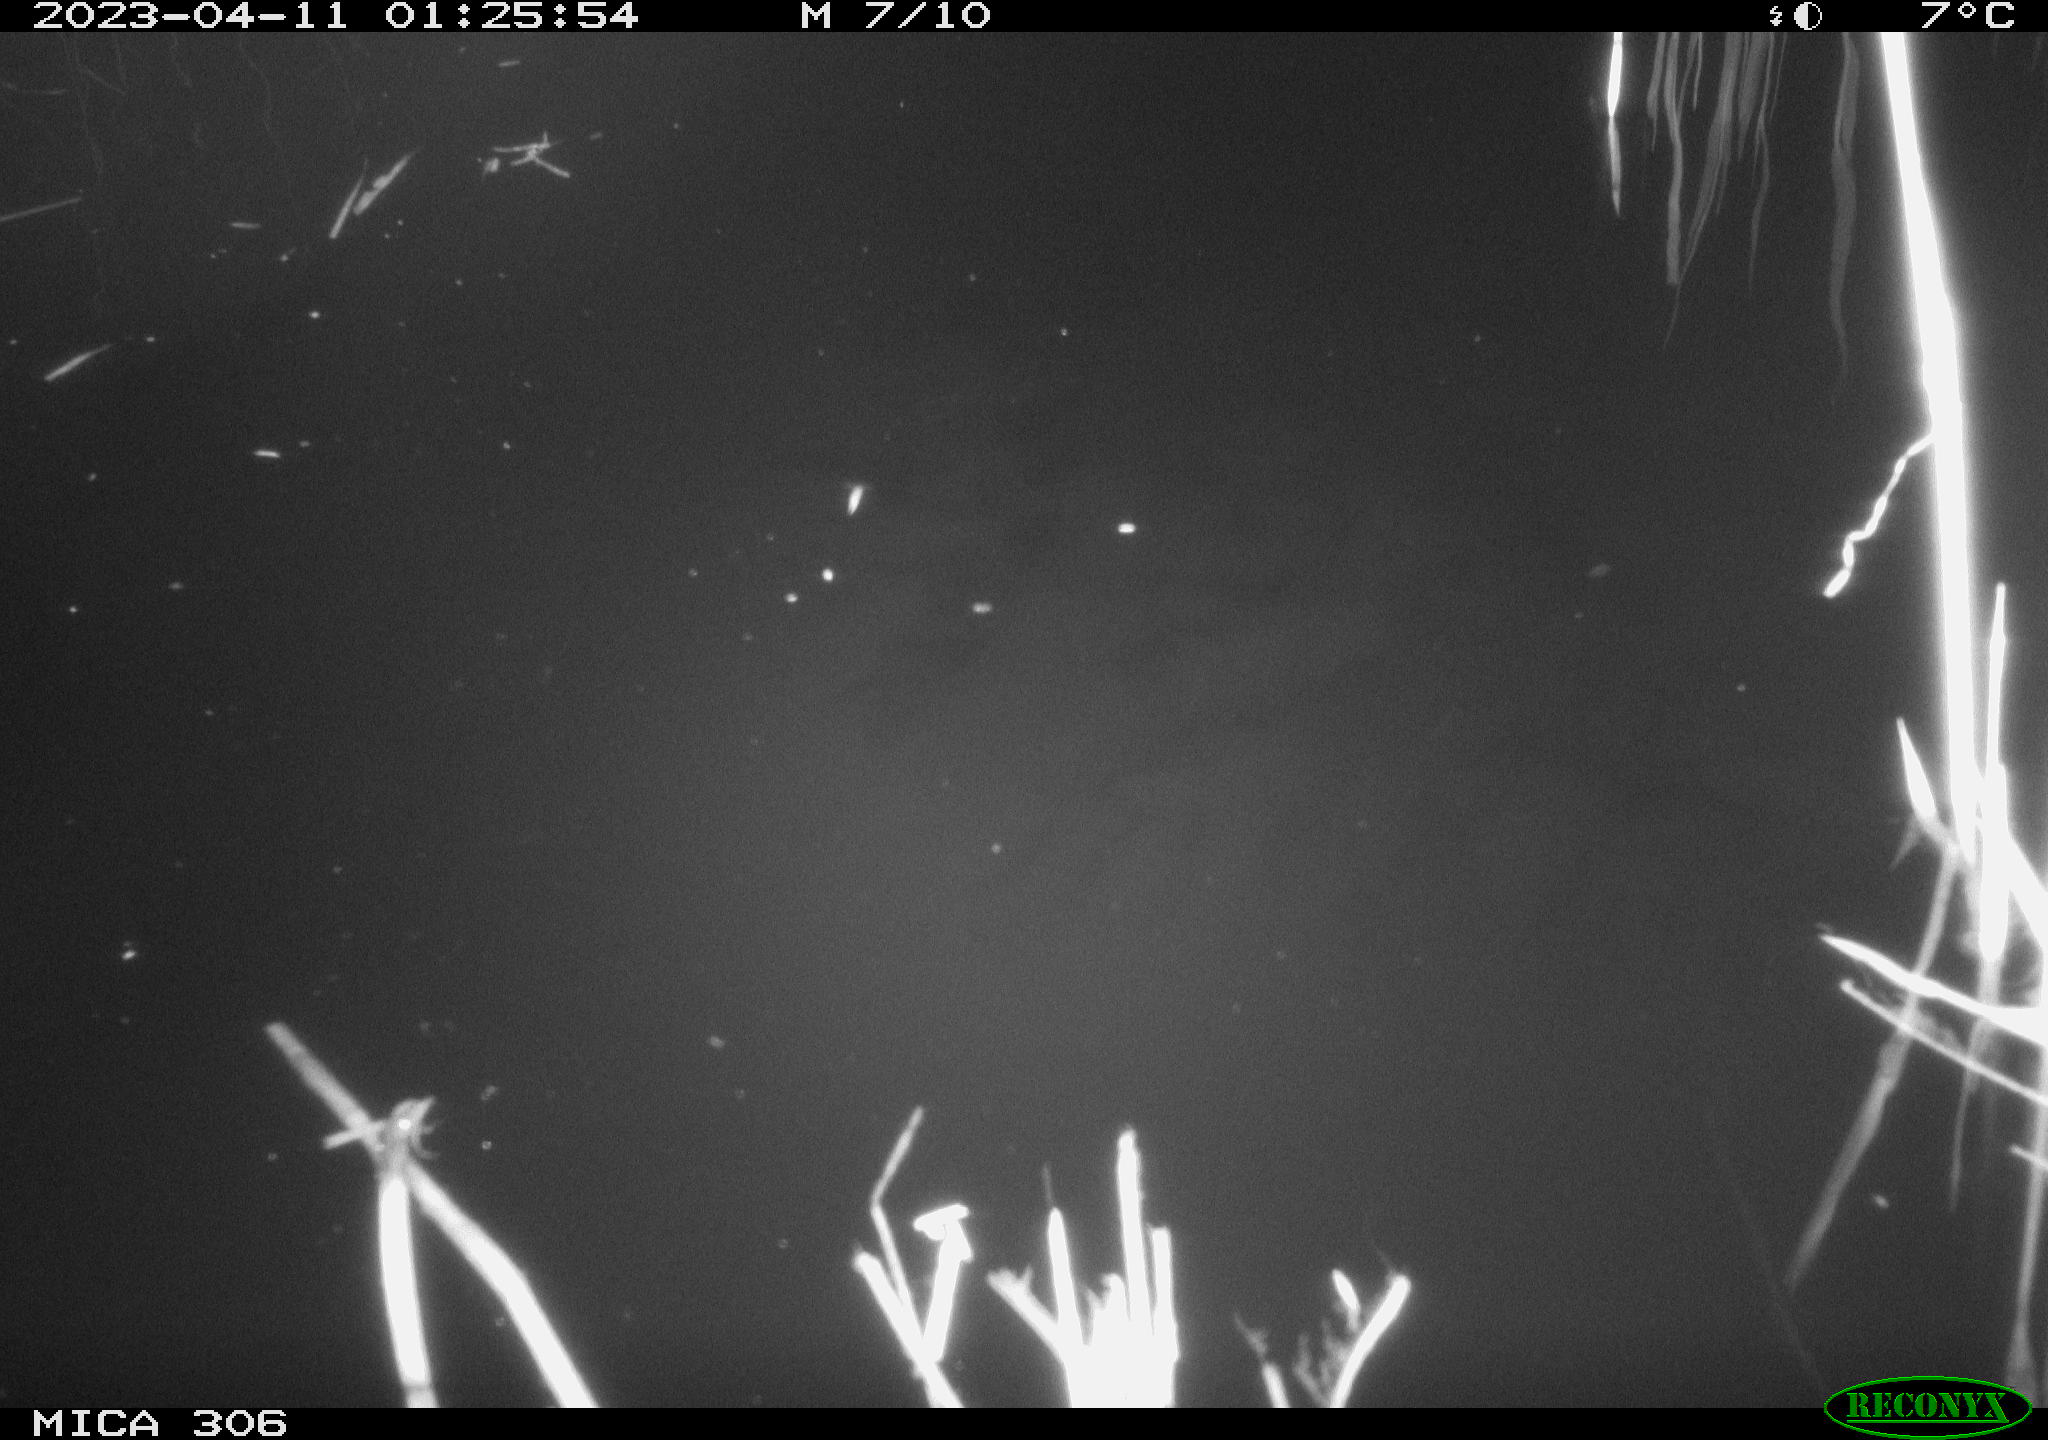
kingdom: Animalia
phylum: Chordata
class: Aves
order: Anseriformes
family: Anatidae
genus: Anas
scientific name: Anas
